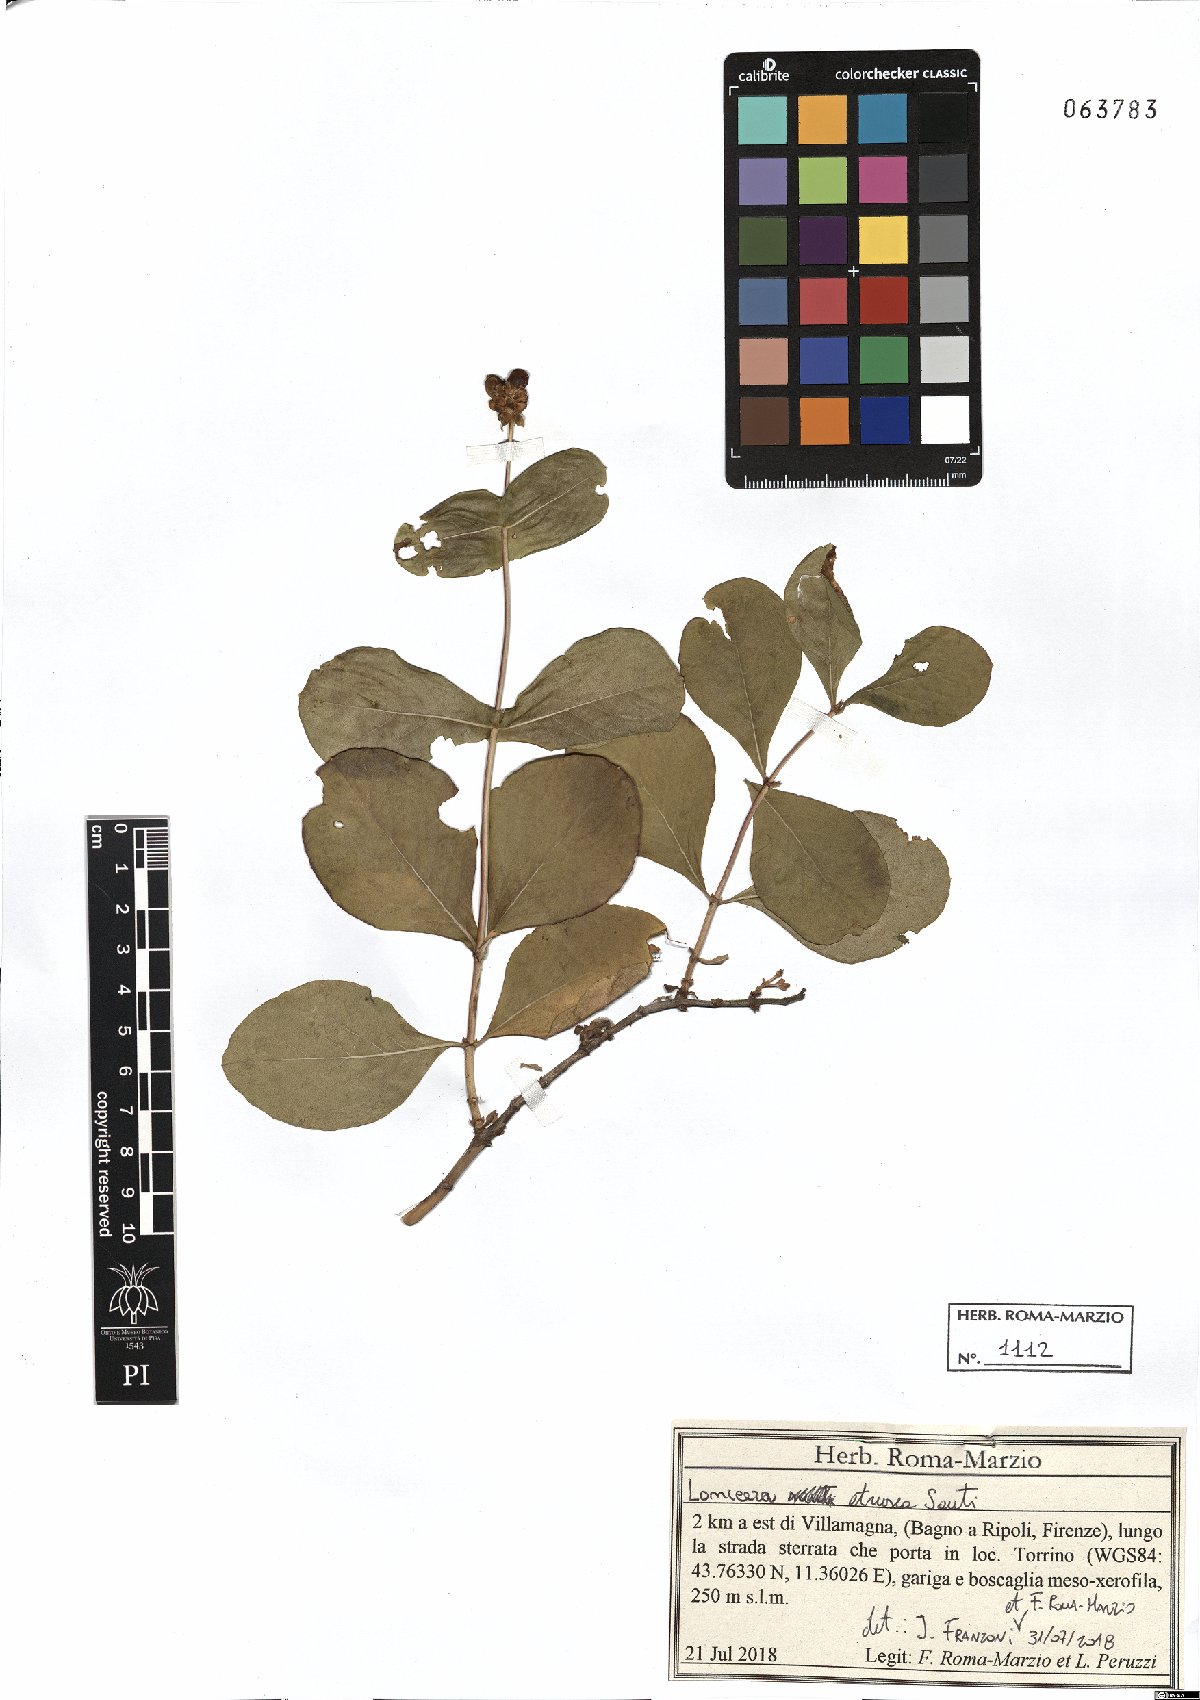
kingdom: Plantae
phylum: Tracheophyta
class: Magnoliopsida
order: Dipsacales
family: Caprifoliaceae
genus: Lonicera
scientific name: Lonicera etrusca
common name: Etruscan honeysuckle
